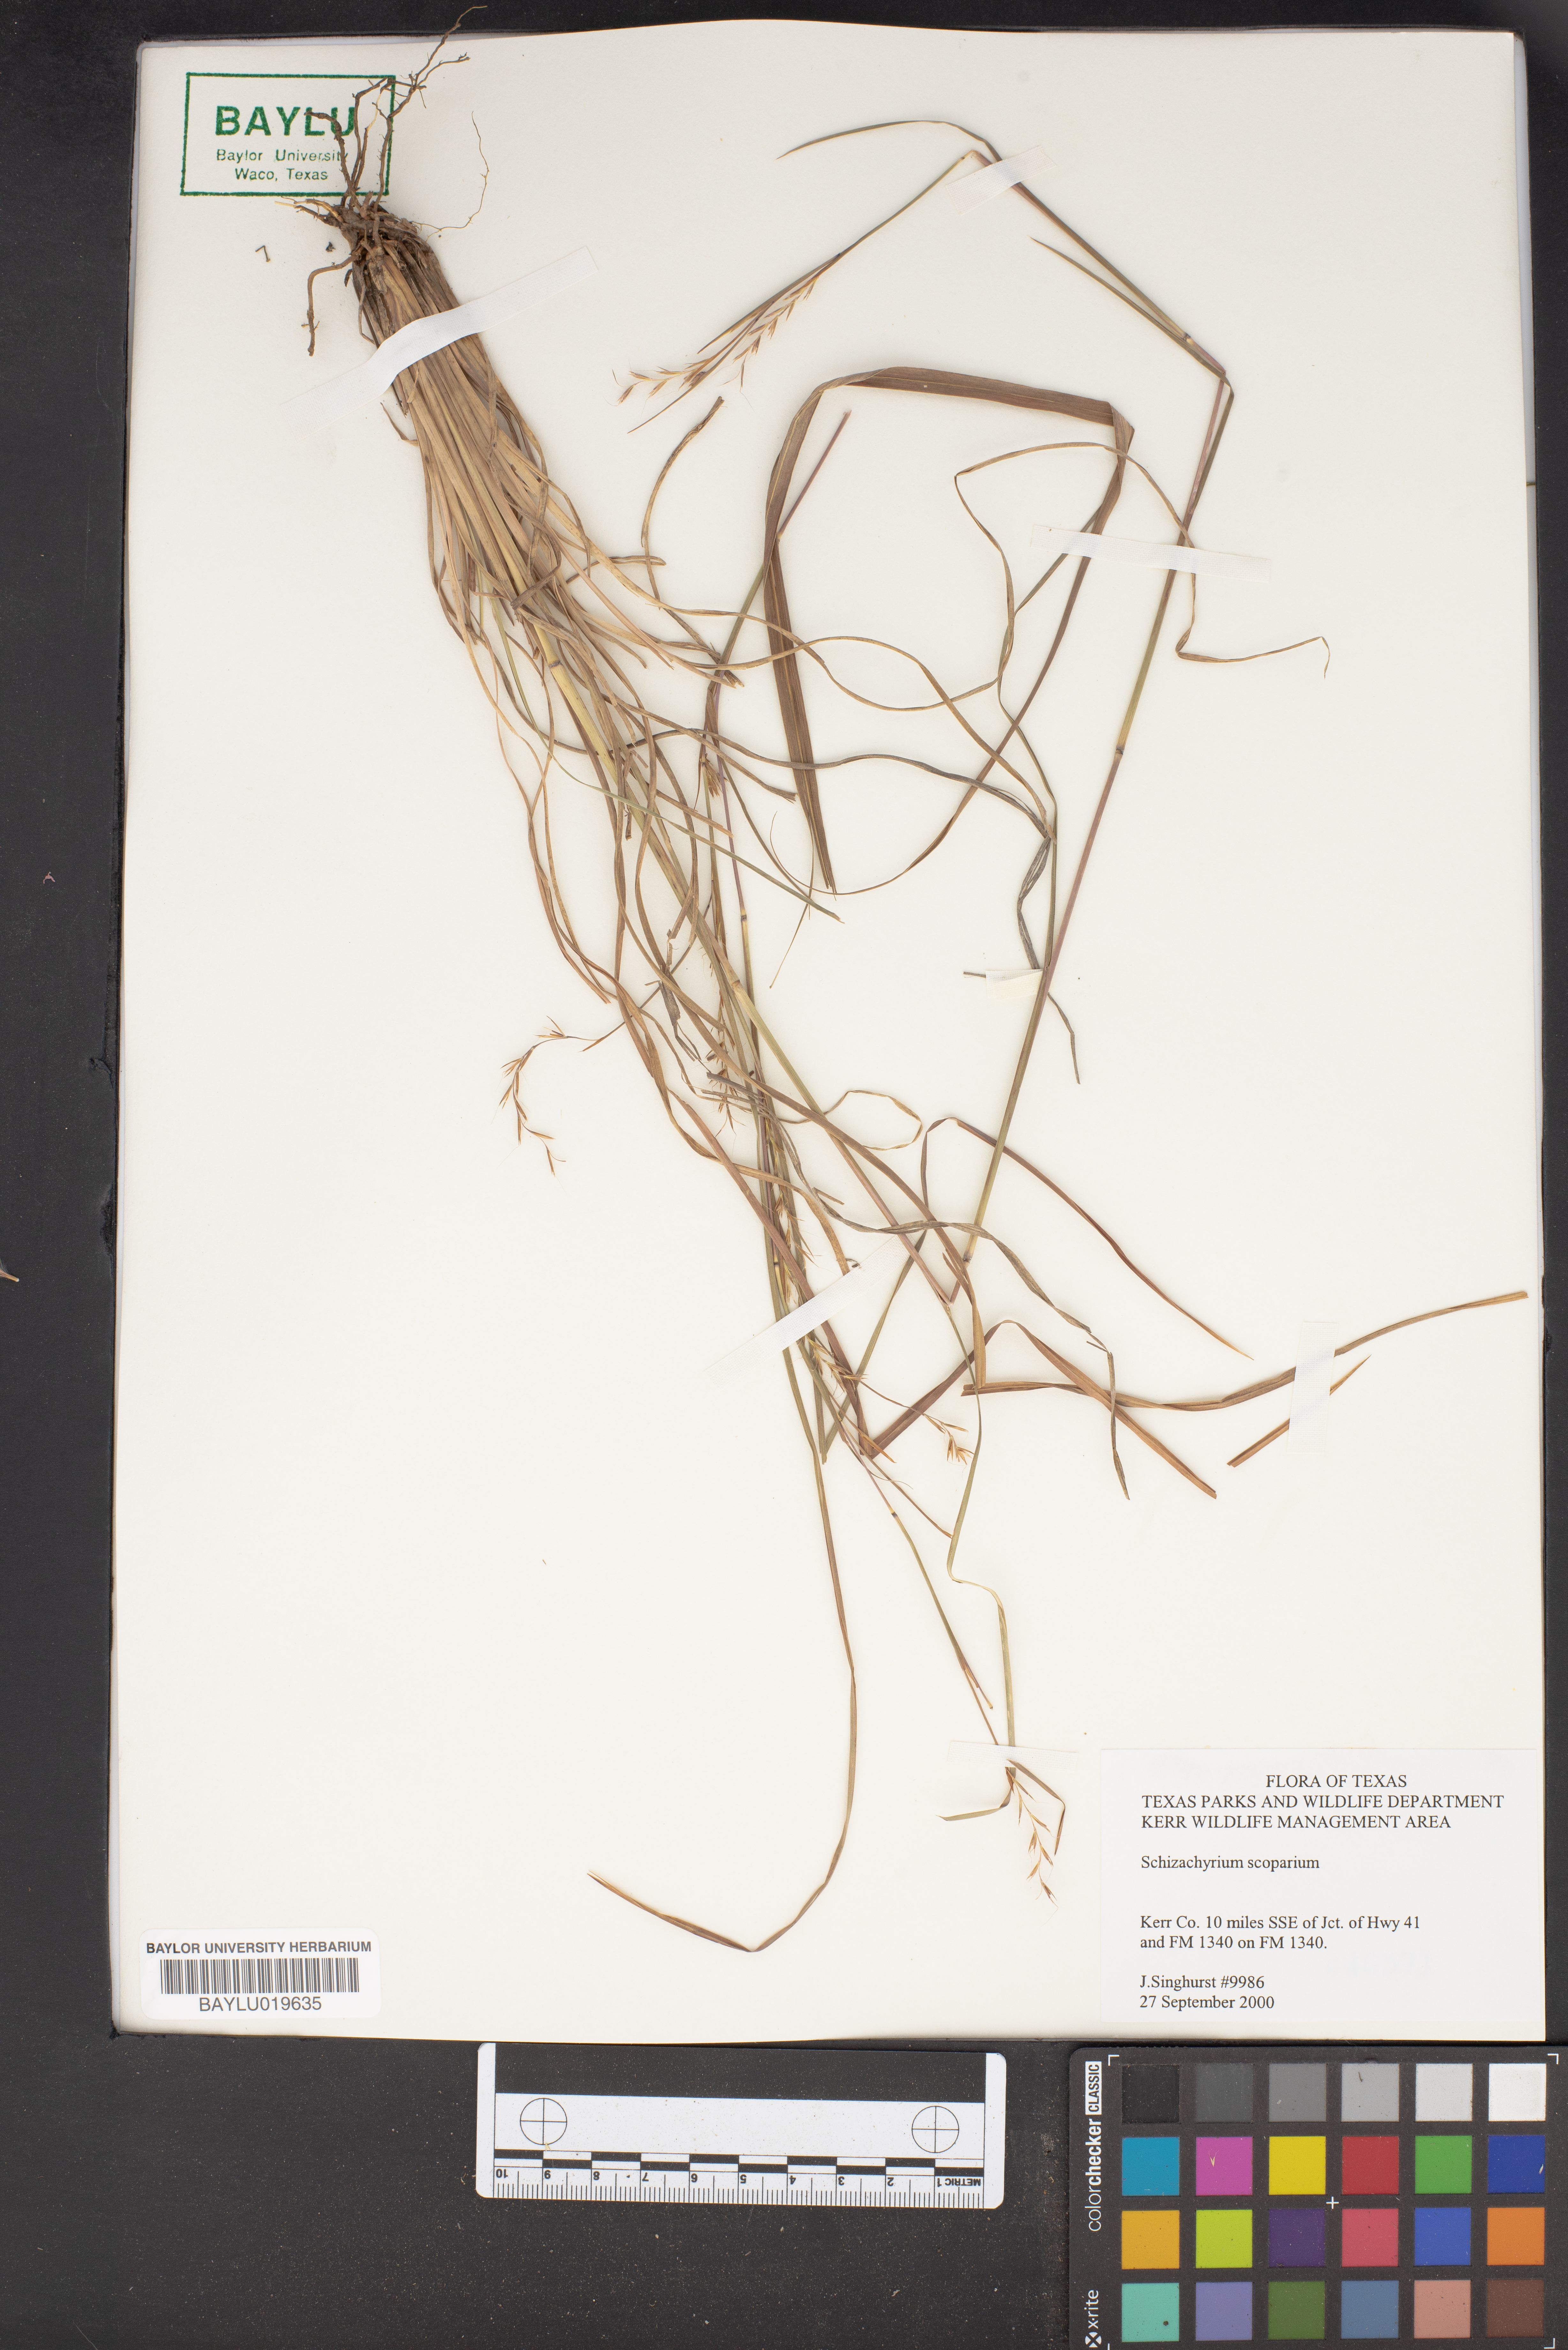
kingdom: Plantae
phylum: Tracheophyta
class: Liliopsida
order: Poales
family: Poaceae
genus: Schizachyrium
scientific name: Schizachyrium scoparium
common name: Little bluestem
